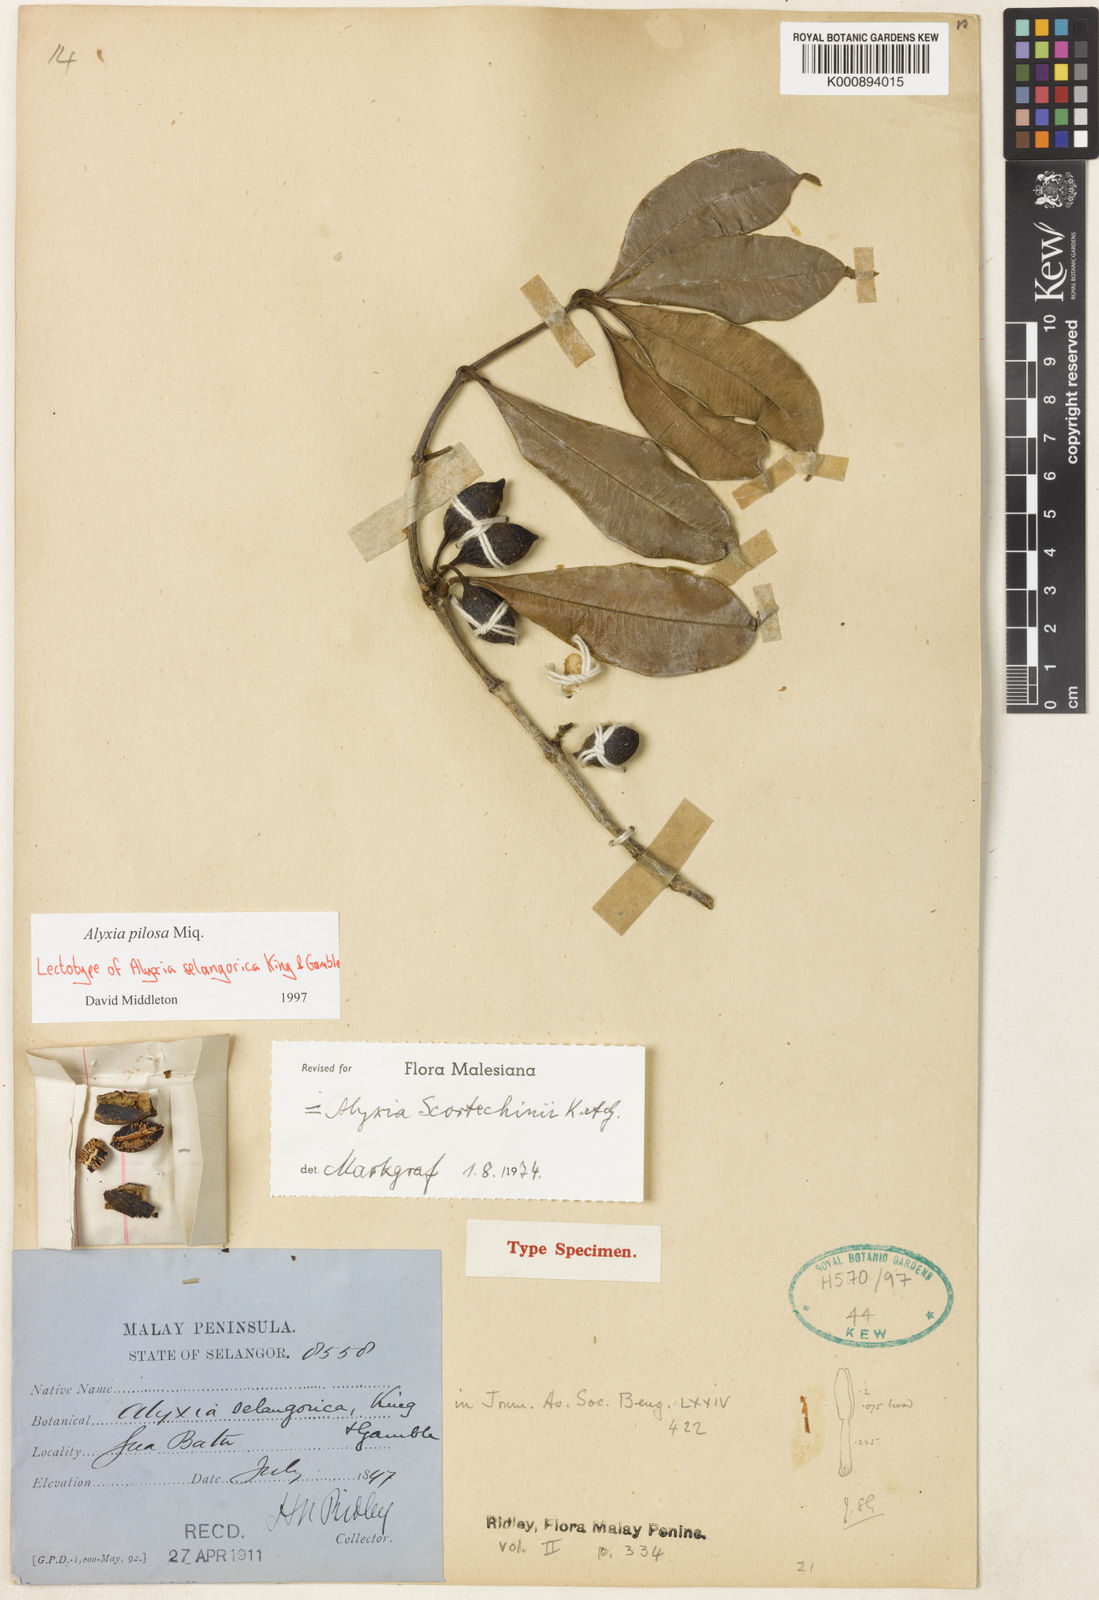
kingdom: Plantae
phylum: Tracheophyta
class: Magnoliopsida
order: Gentianales
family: Apocynaceae
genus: Alyxia
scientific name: Alyxia pilosa
